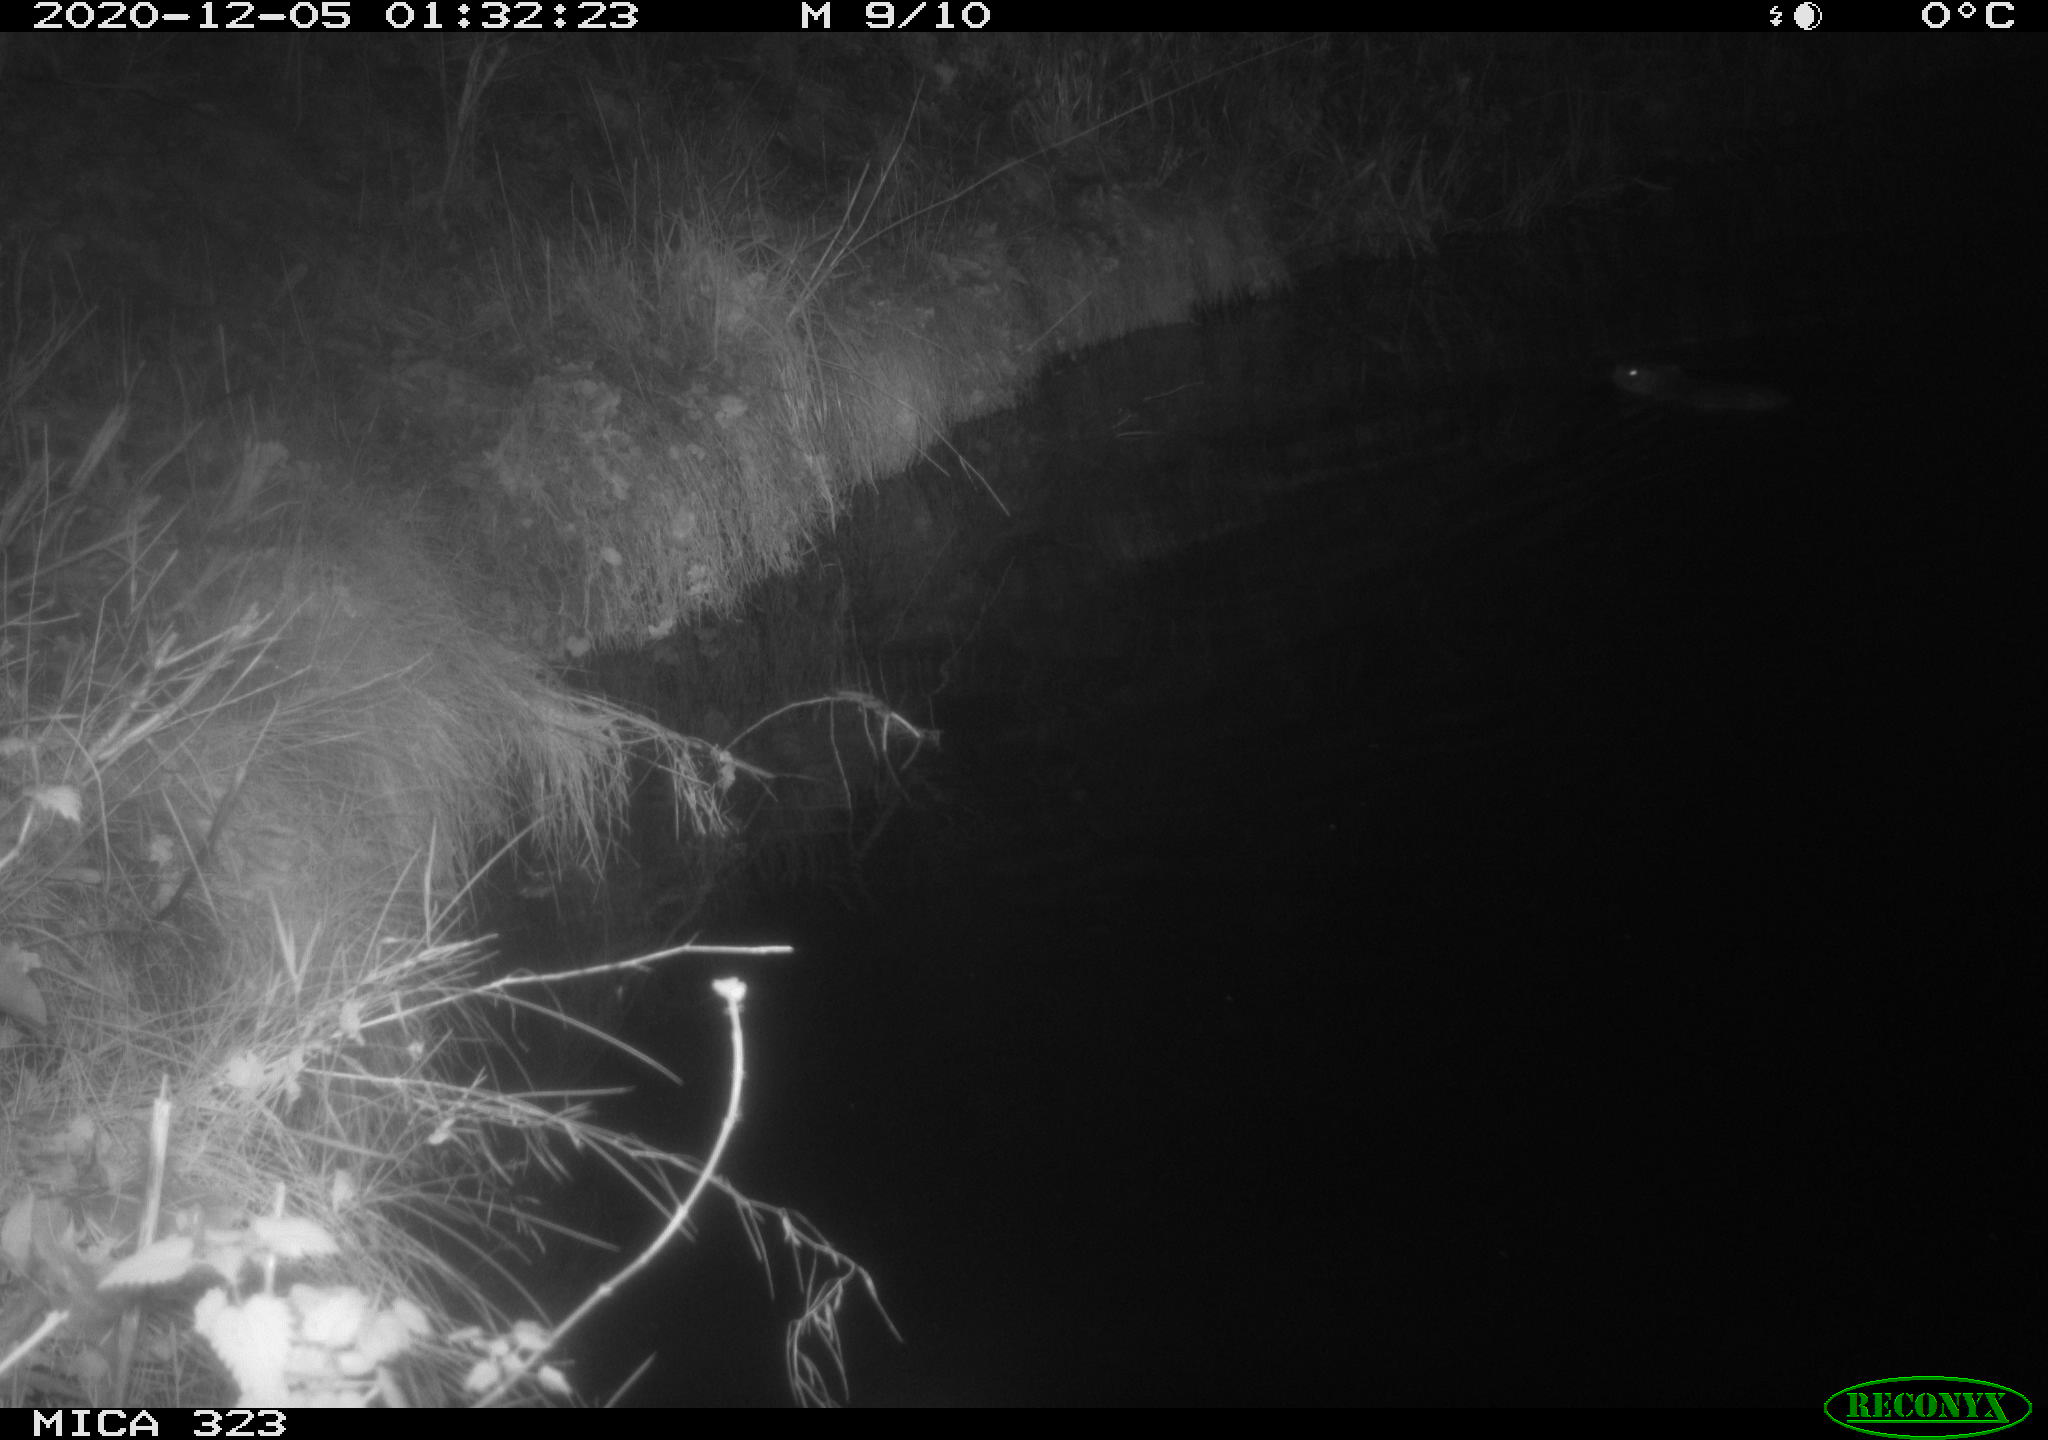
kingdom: Animalia
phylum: Chordata
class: Mammalia
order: Rodentia
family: Myocastoridae
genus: Myocastor
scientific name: Myocastor coypus
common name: Coypu
